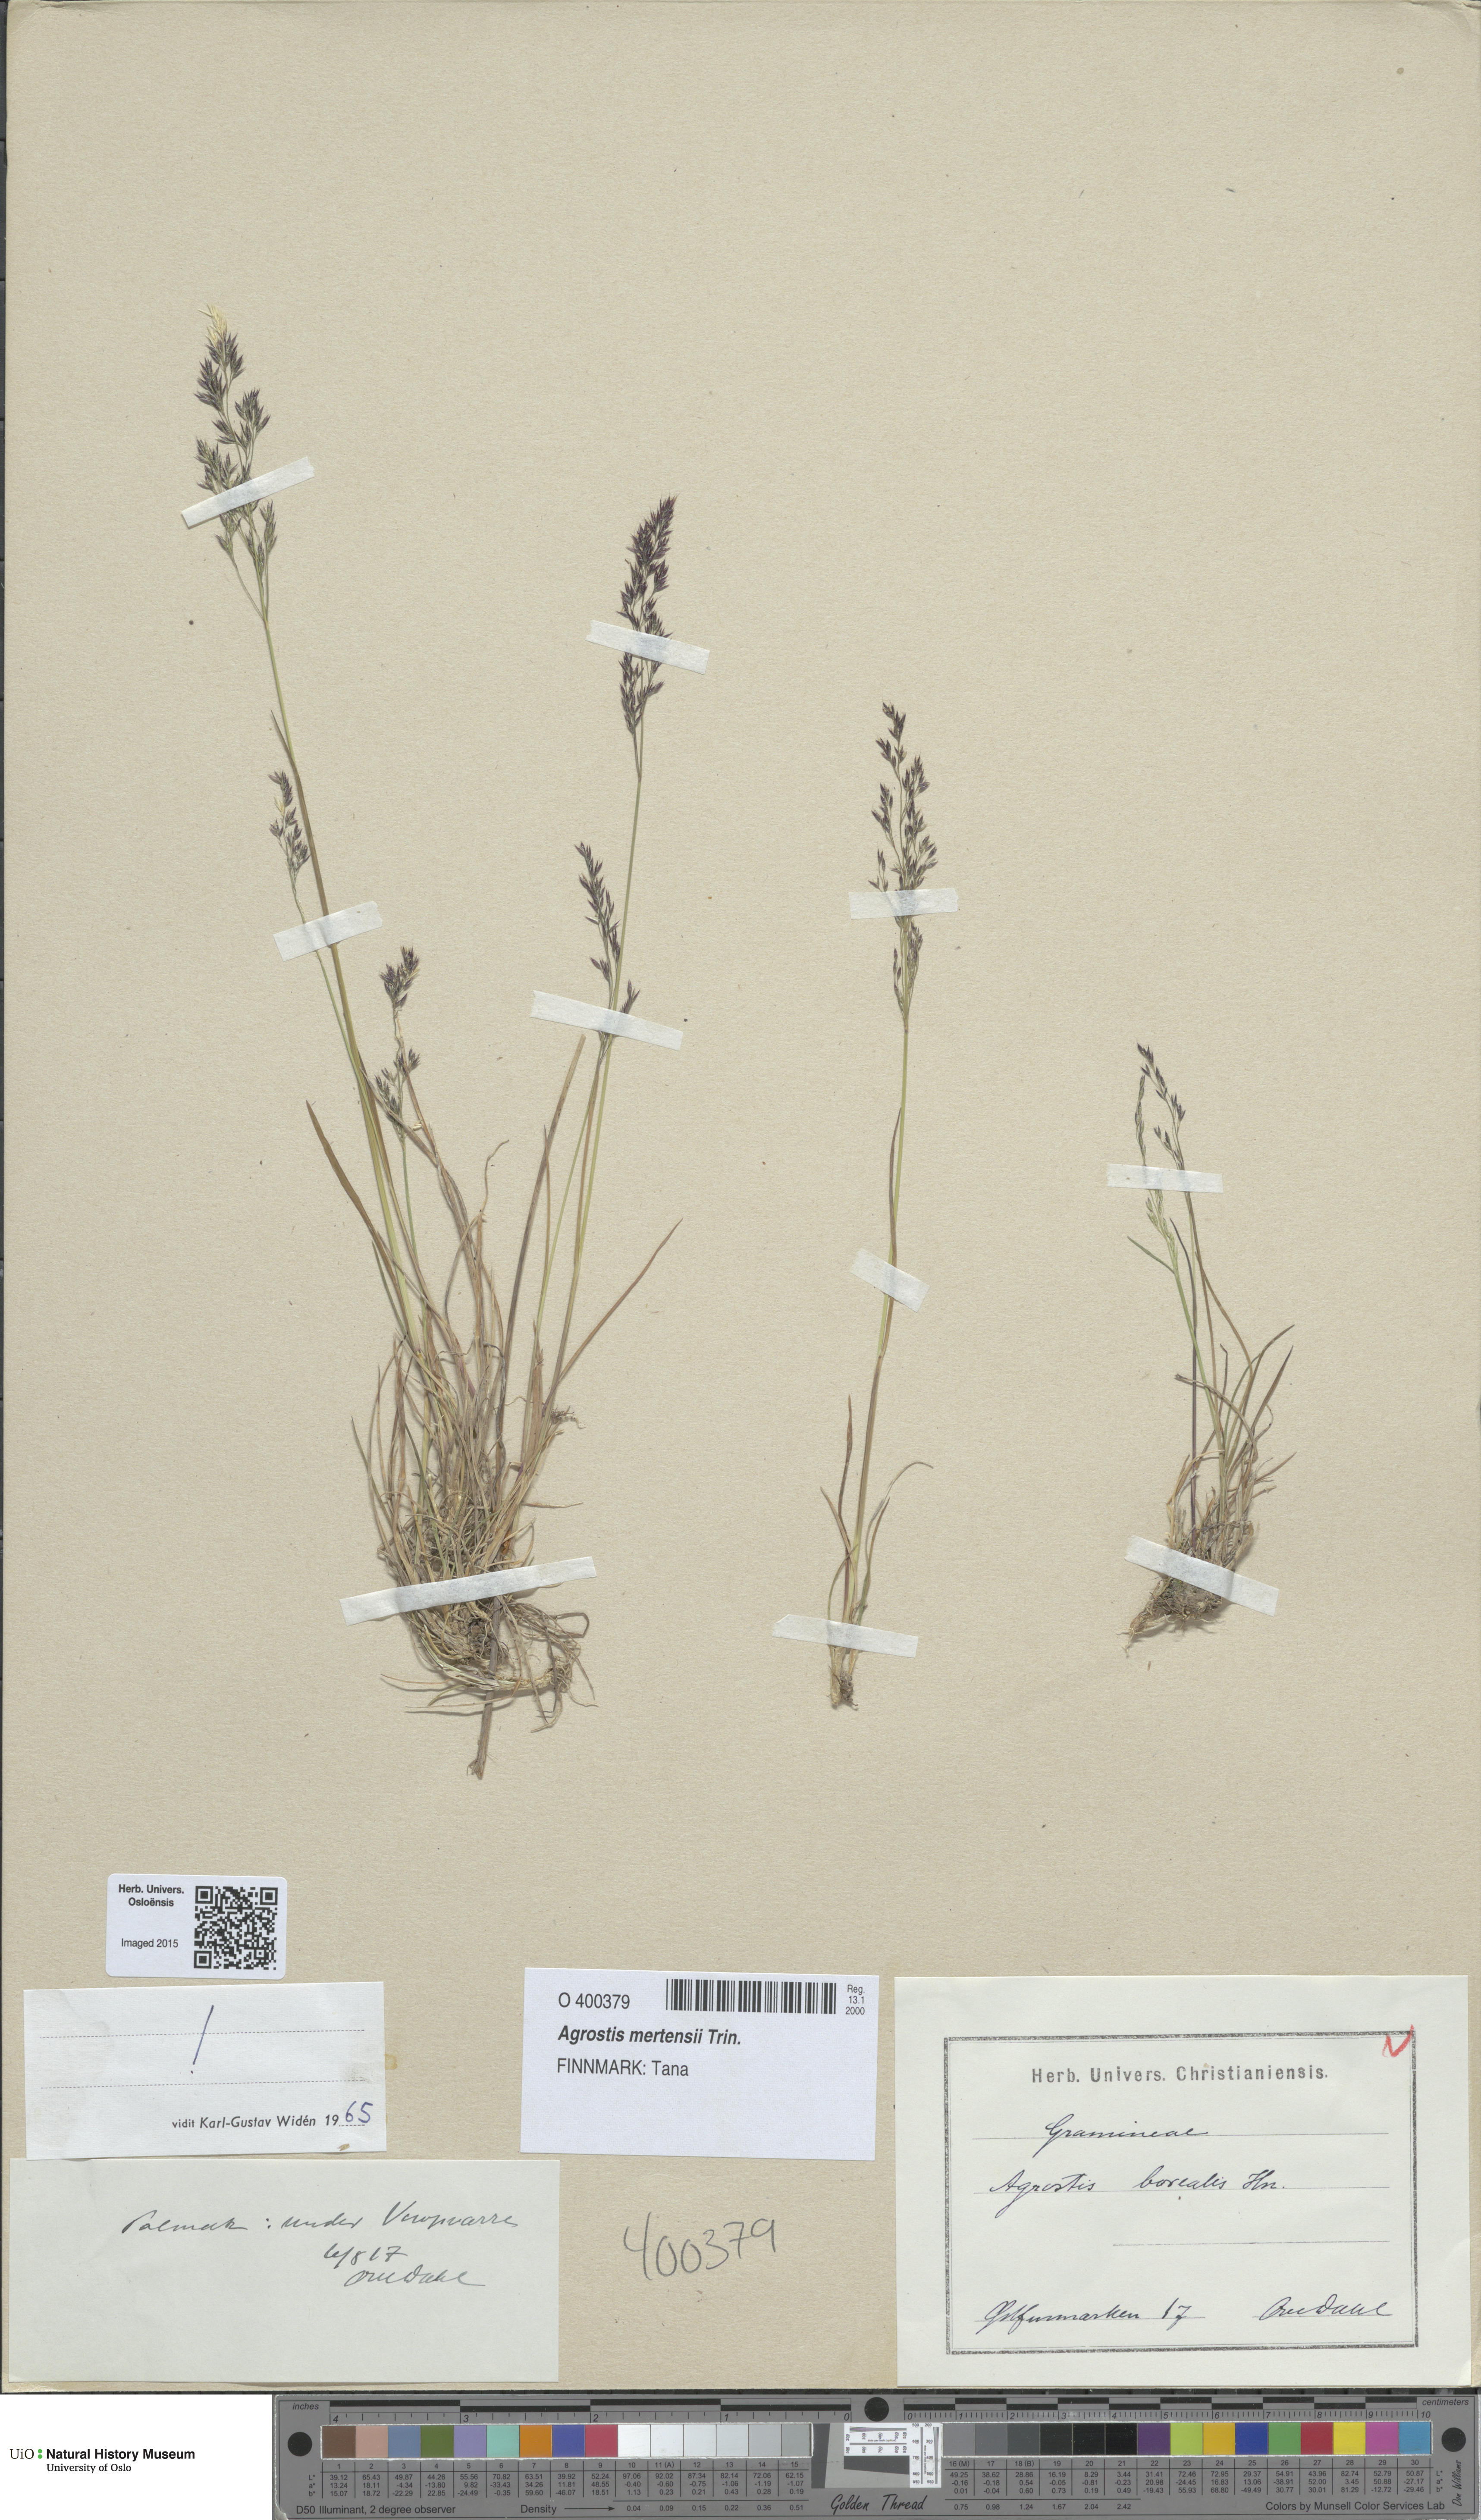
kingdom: Plantae
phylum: Tracheophyta
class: Liliopsida
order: Poales
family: Poaceae
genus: Agrostis
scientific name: Agrostis mertensii
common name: Northern bent
